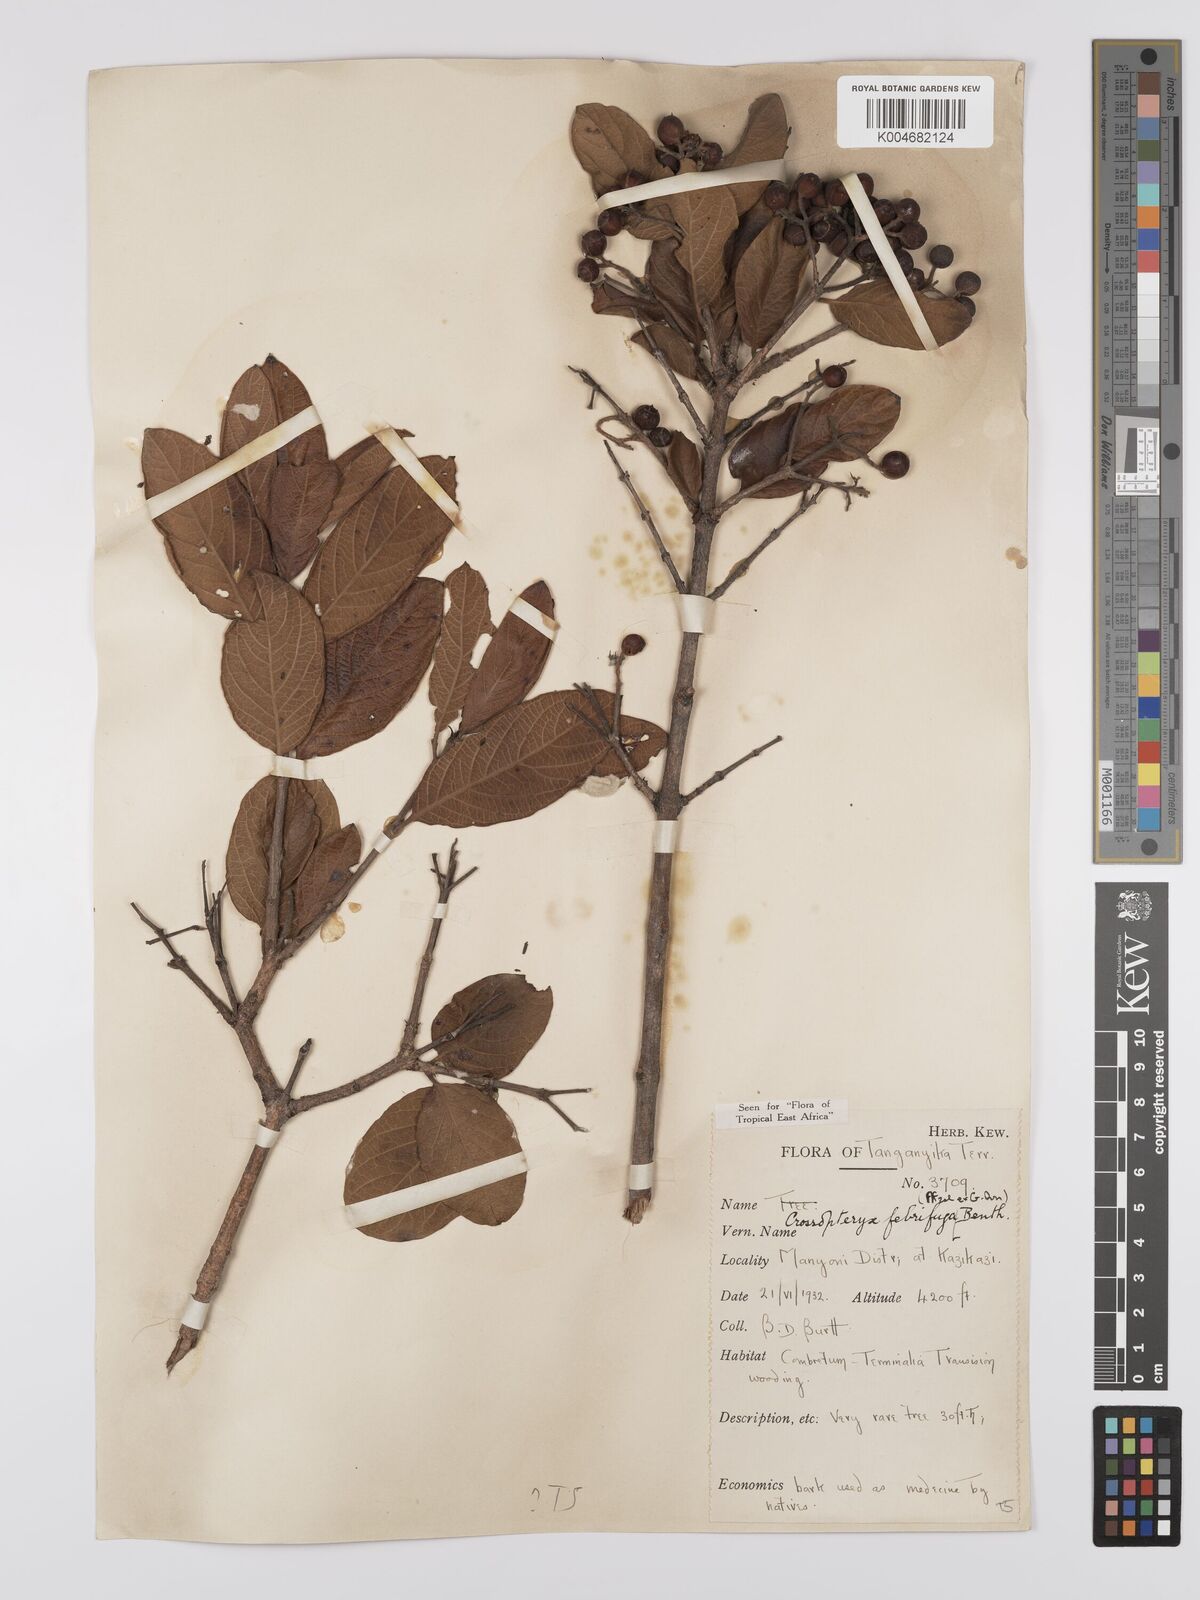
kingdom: Plantae
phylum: Tracheophyta
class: Magnoliopsida
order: Gentianales
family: Rubiaceae
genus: Crossopteryx
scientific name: Crossopteryx febrifuga
